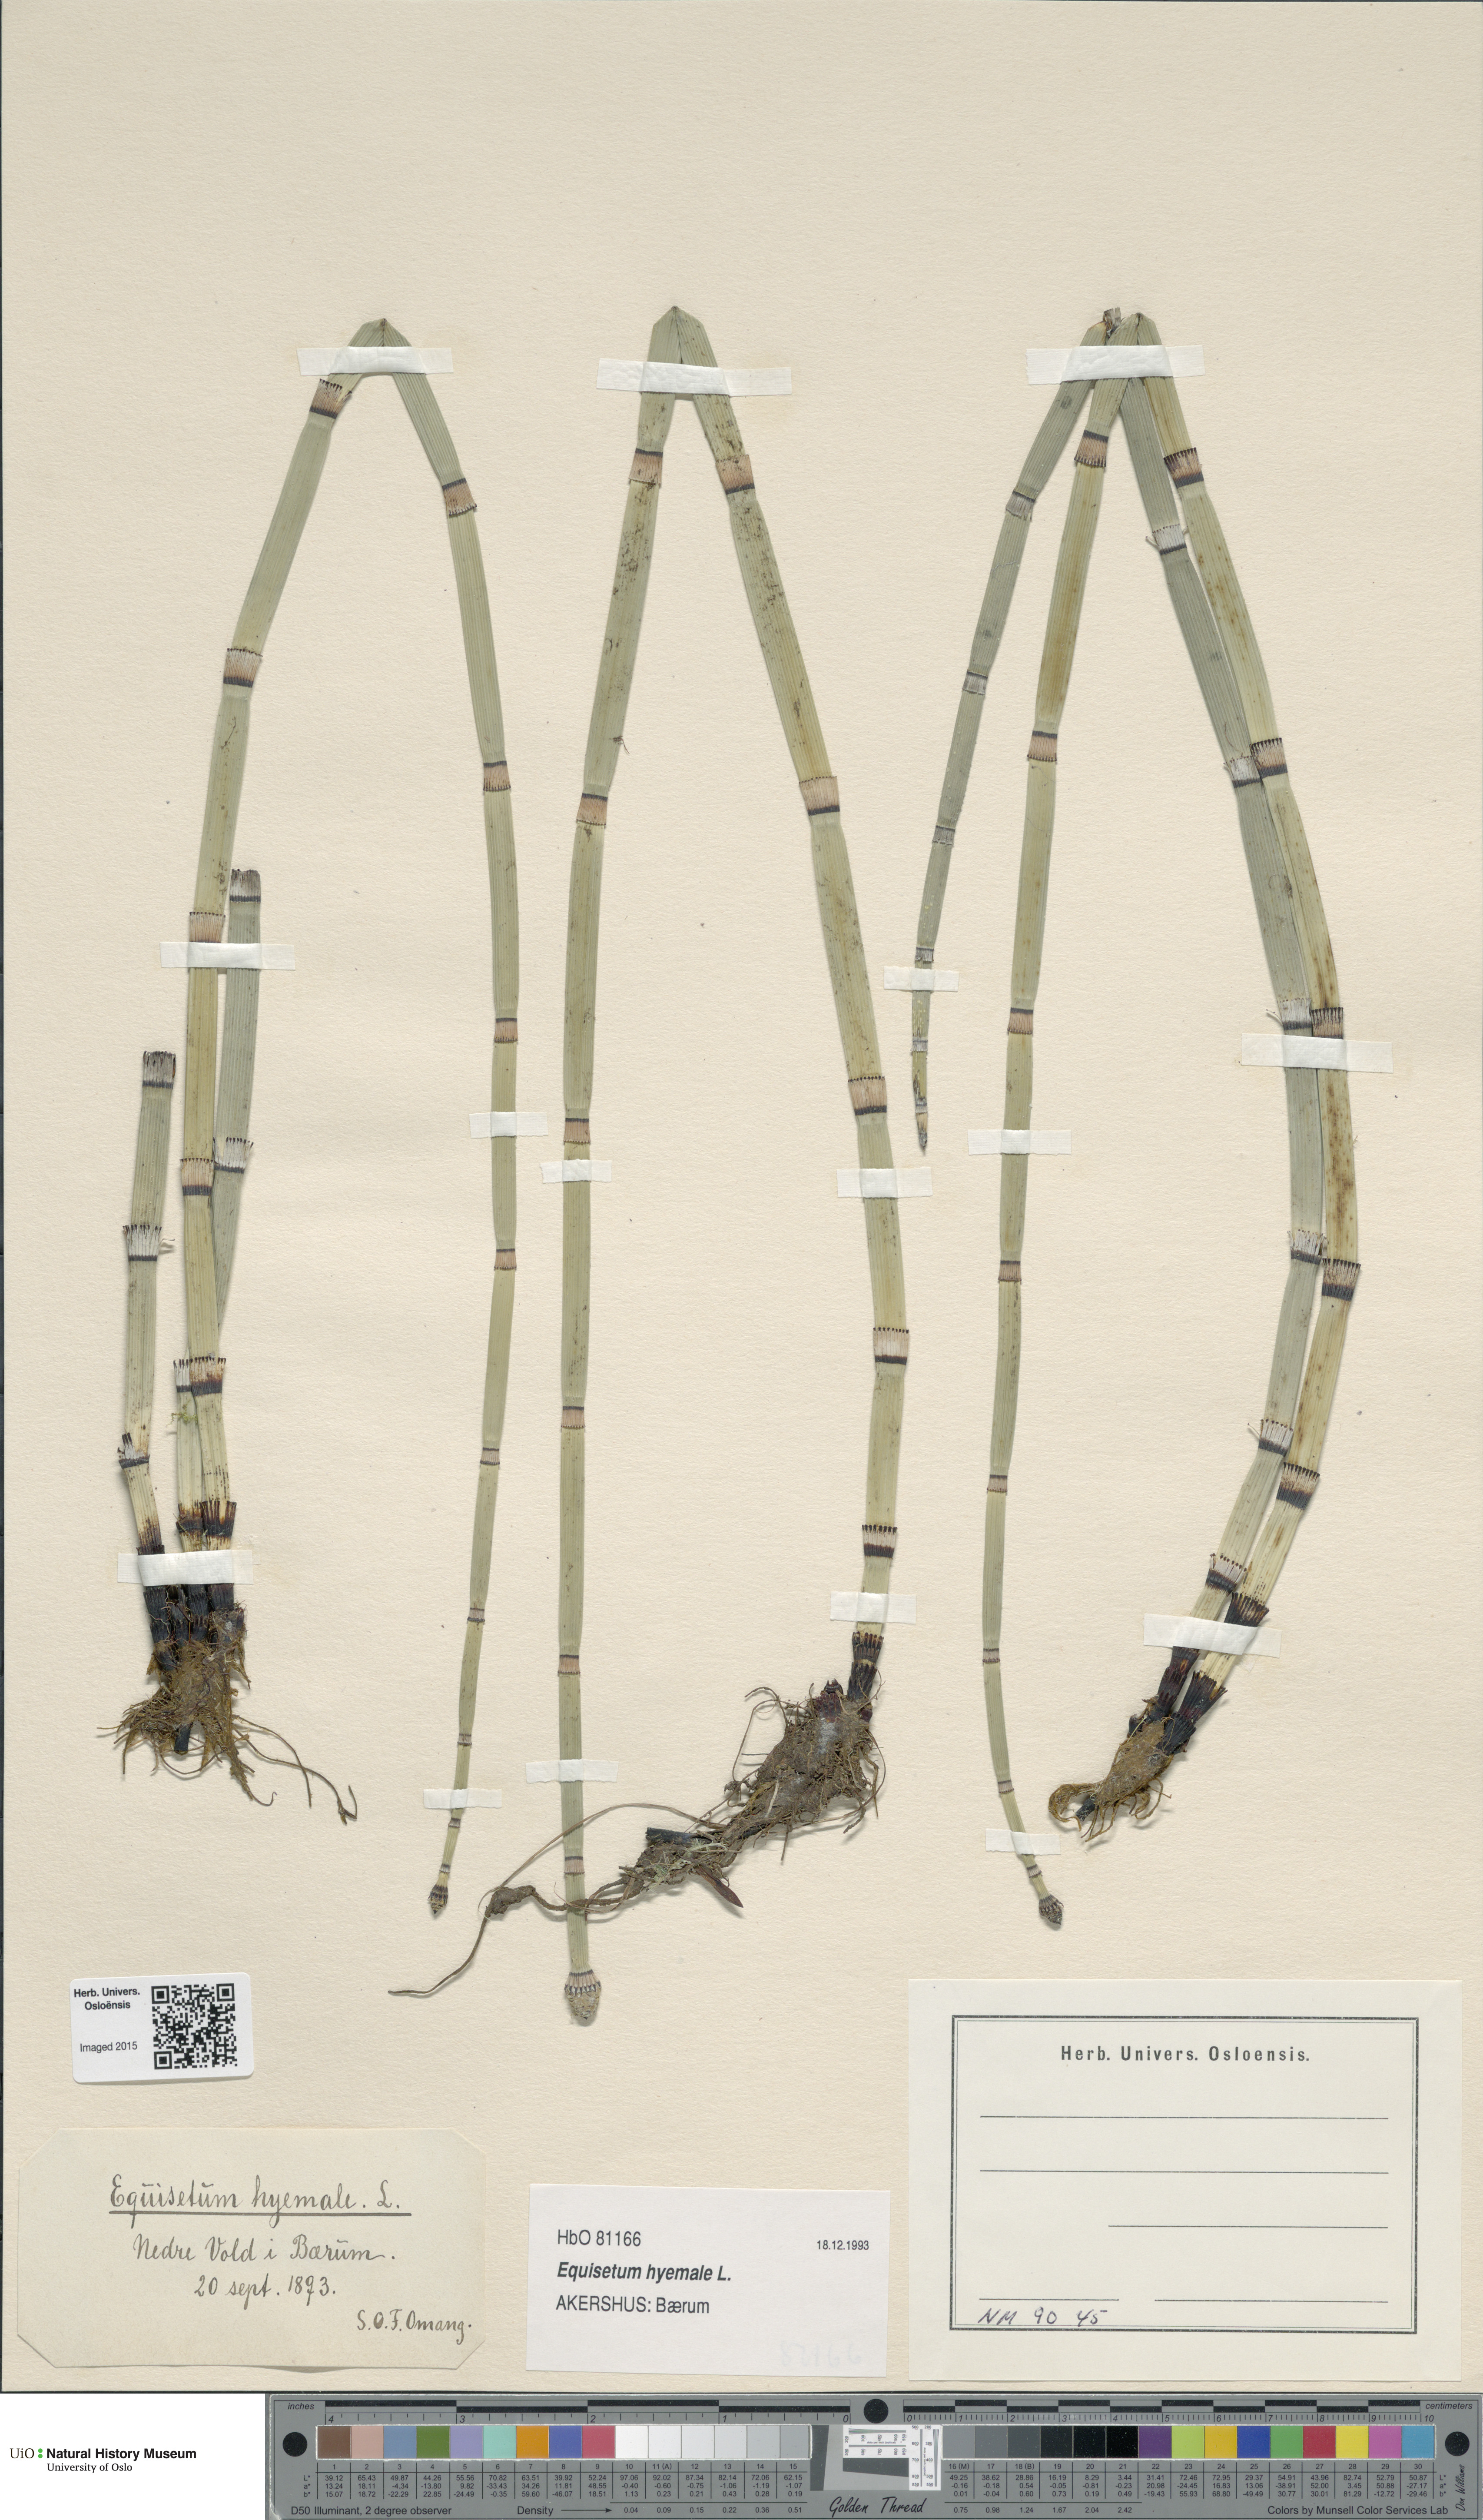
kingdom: Plantae
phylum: Tracheophyta
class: Polypodiopsida
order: Equisetales
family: Equisetaceae
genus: Equisetum
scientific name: Equisetum hyemale
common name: Rough horsetail
